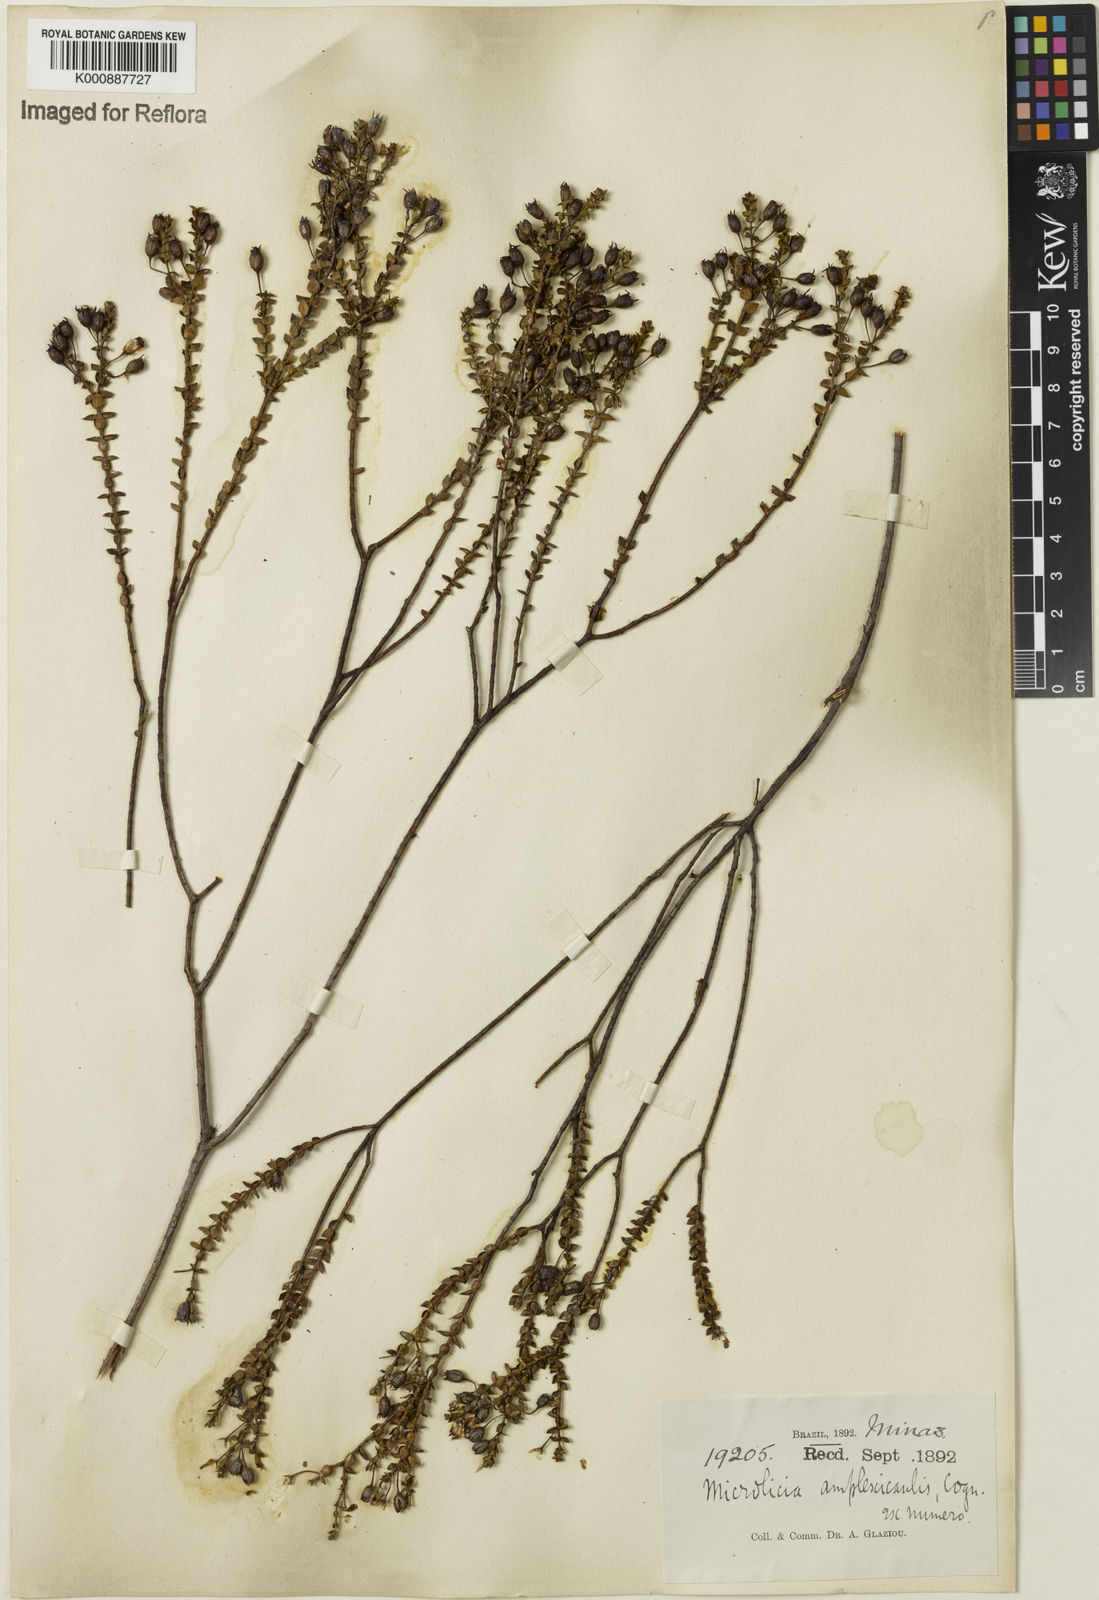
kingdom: Plantae
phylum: Tracheophyta
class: Magnoliopsida
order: Myrtales
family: Melastomataceae
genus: Microlicia
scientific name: Microlicia amplexicaulis
